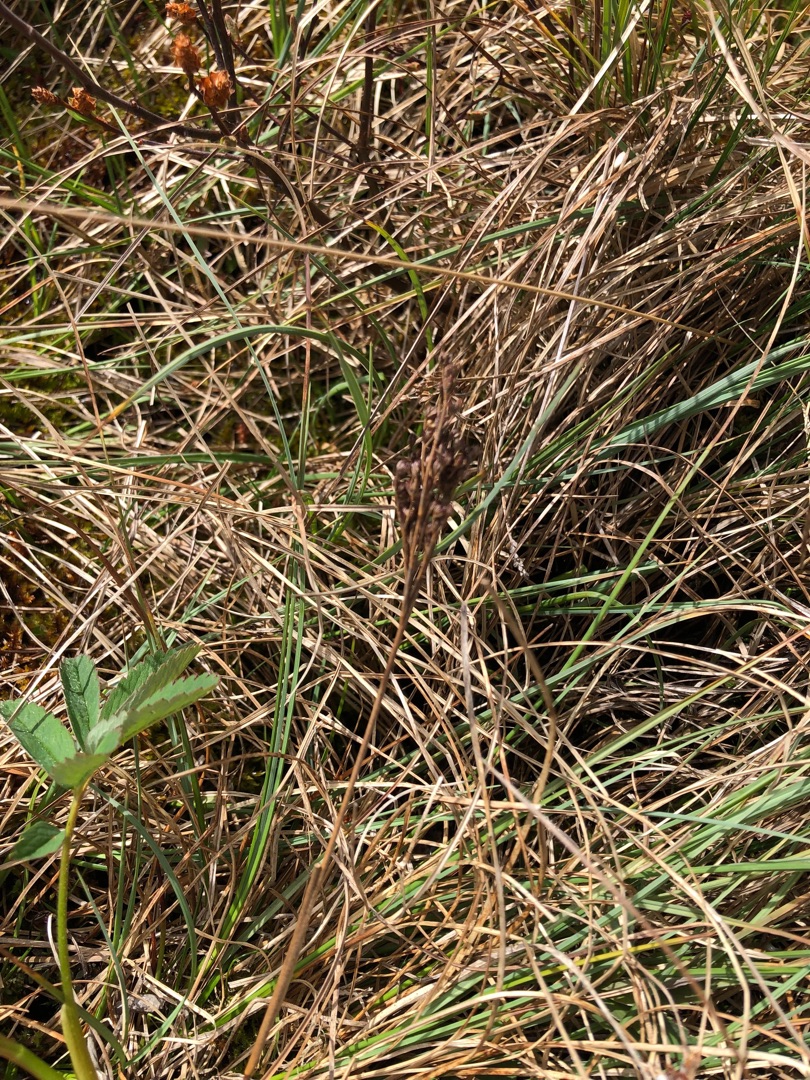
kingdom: Plantae
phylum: Tracheophyta
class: Liliopsida
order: Poales
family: Juncaceae
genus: Juncus
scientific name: Juncus anceps
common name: Sand-siv
